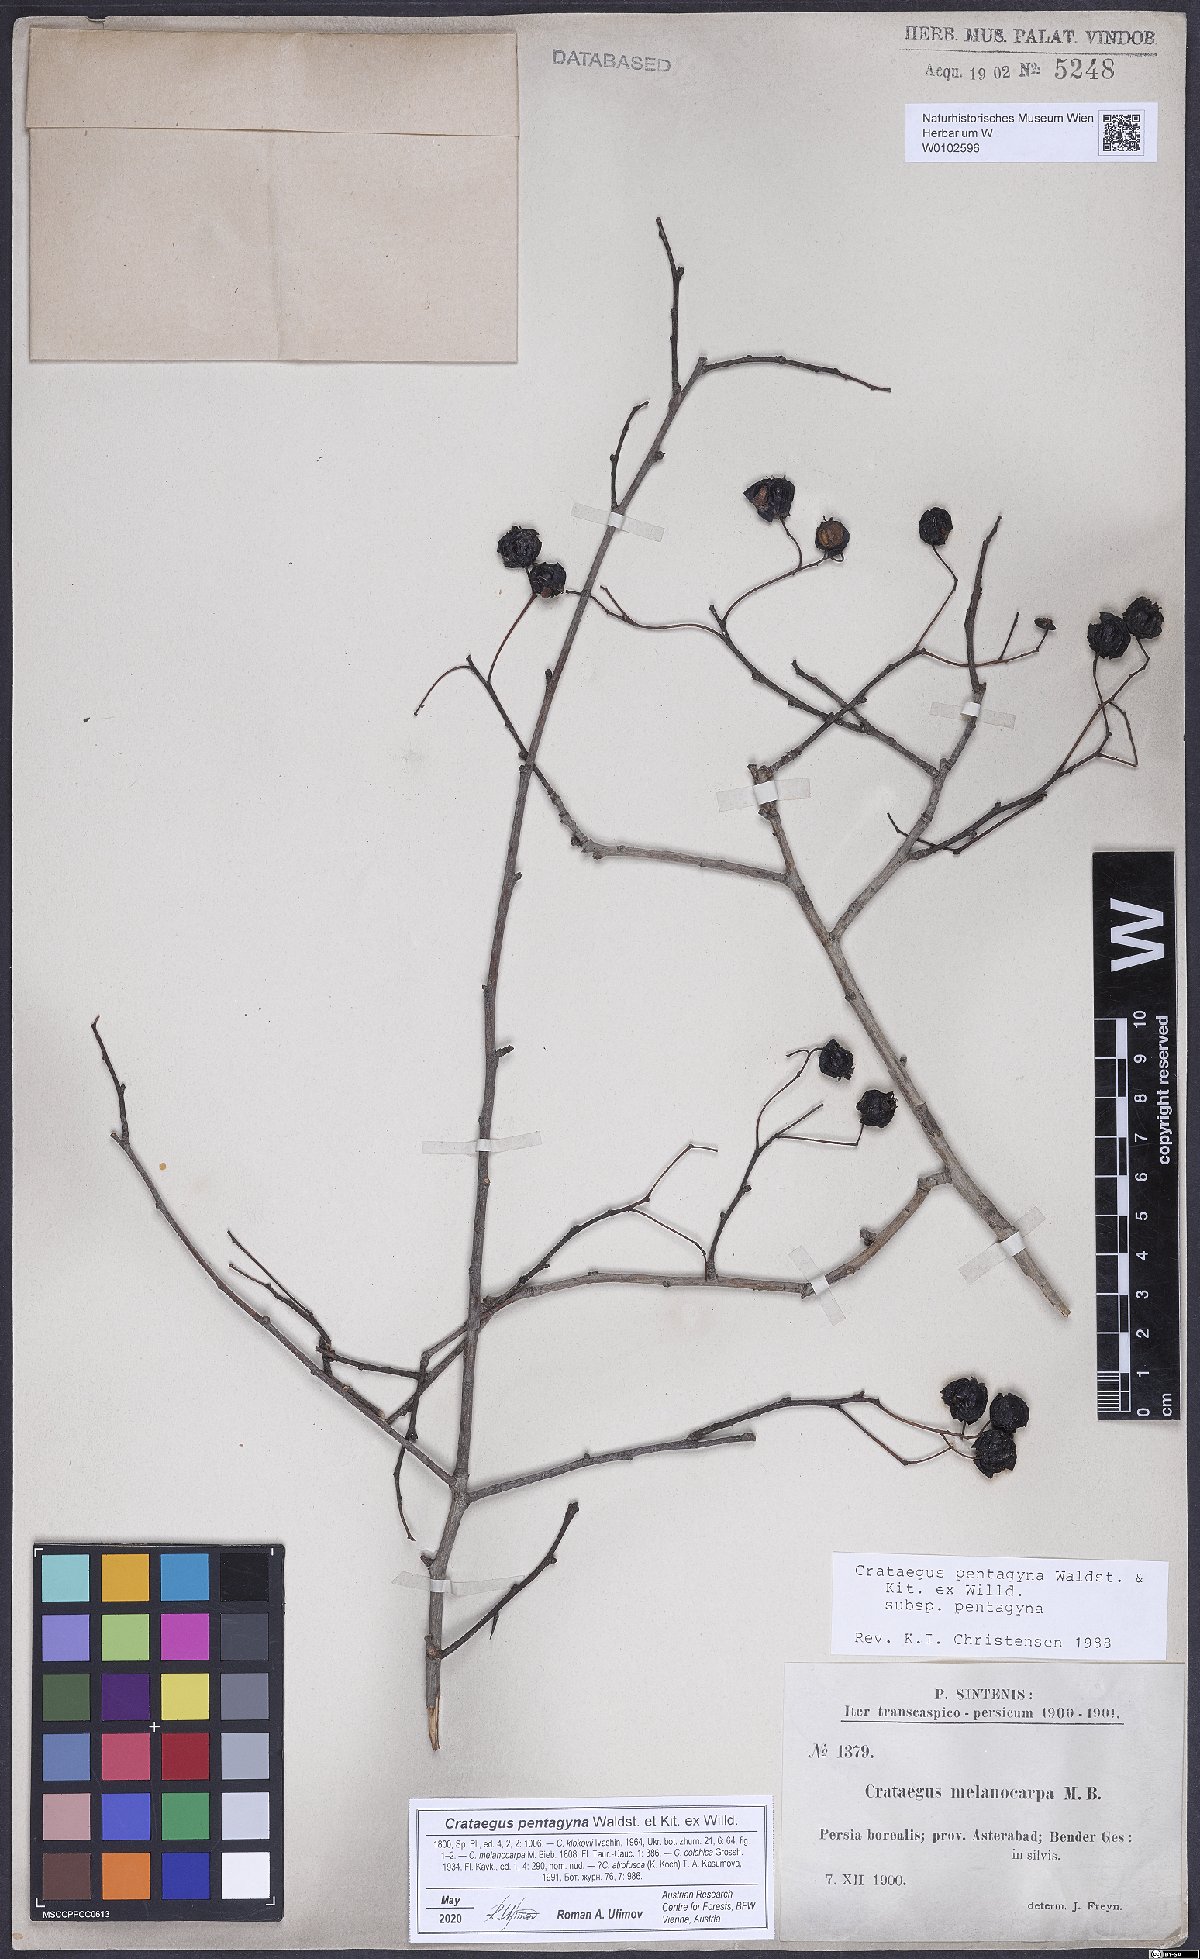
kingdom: Plantae
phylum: Tracheophyta
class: Magnoliopsida
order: Rosales
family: Rosaceae
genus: Crataegus
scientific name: Crataegus pentagyna
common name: Small-flowered black hawthorn
